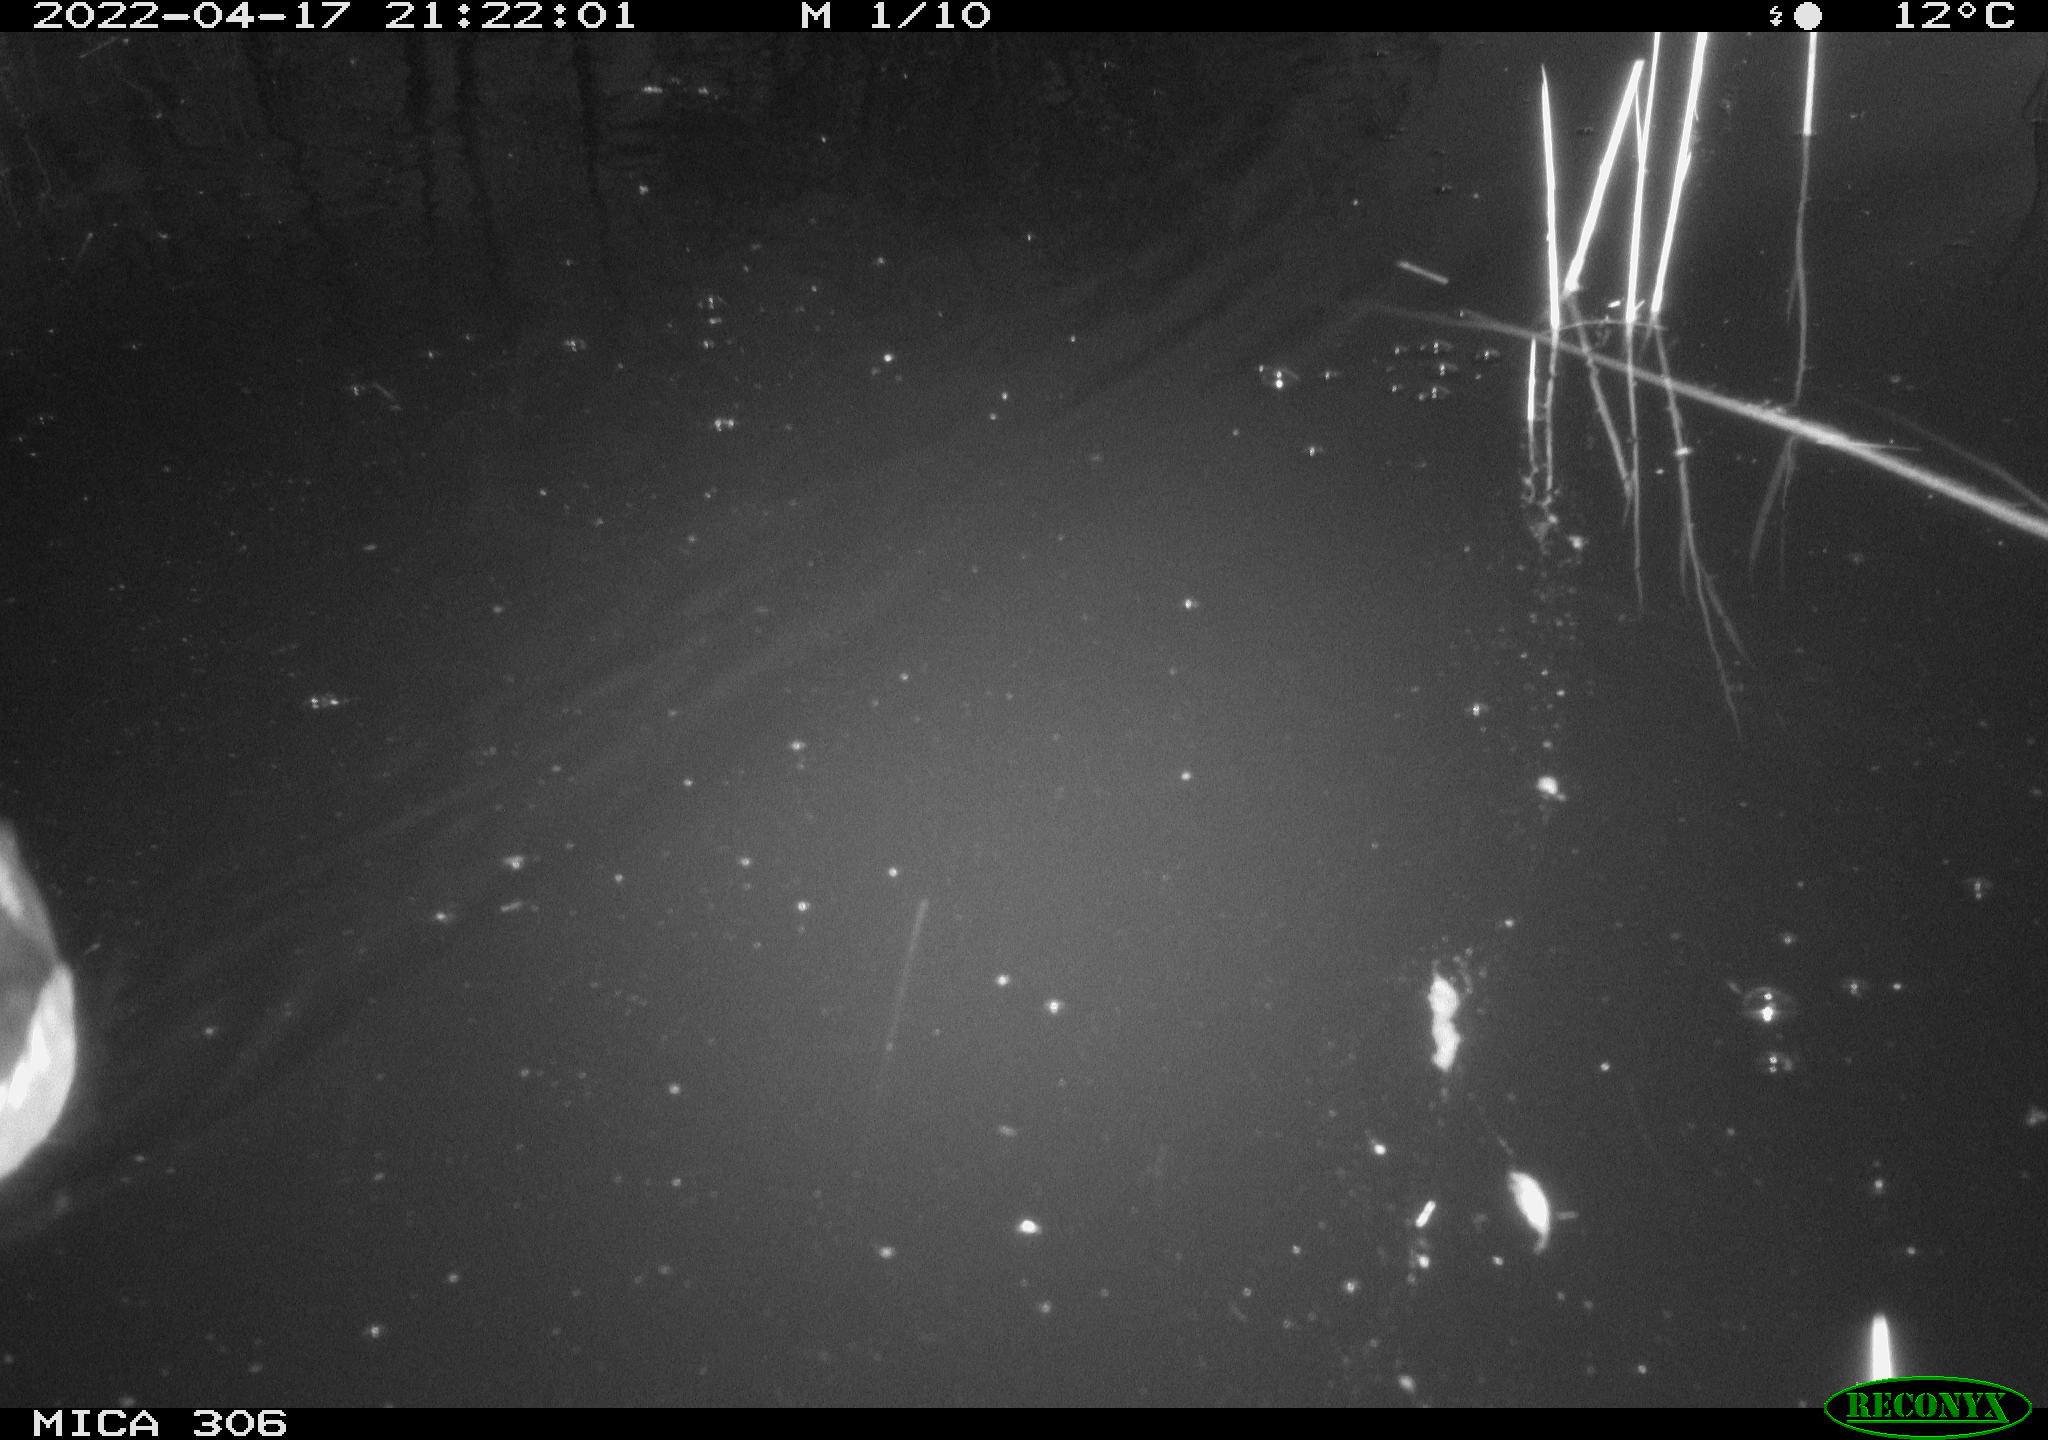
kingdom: Animalia
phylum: Chordata
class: Aves
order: Anseriformes
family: Anatidae
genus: Anas
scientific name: Anas platyrhynchos
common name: Mallard
